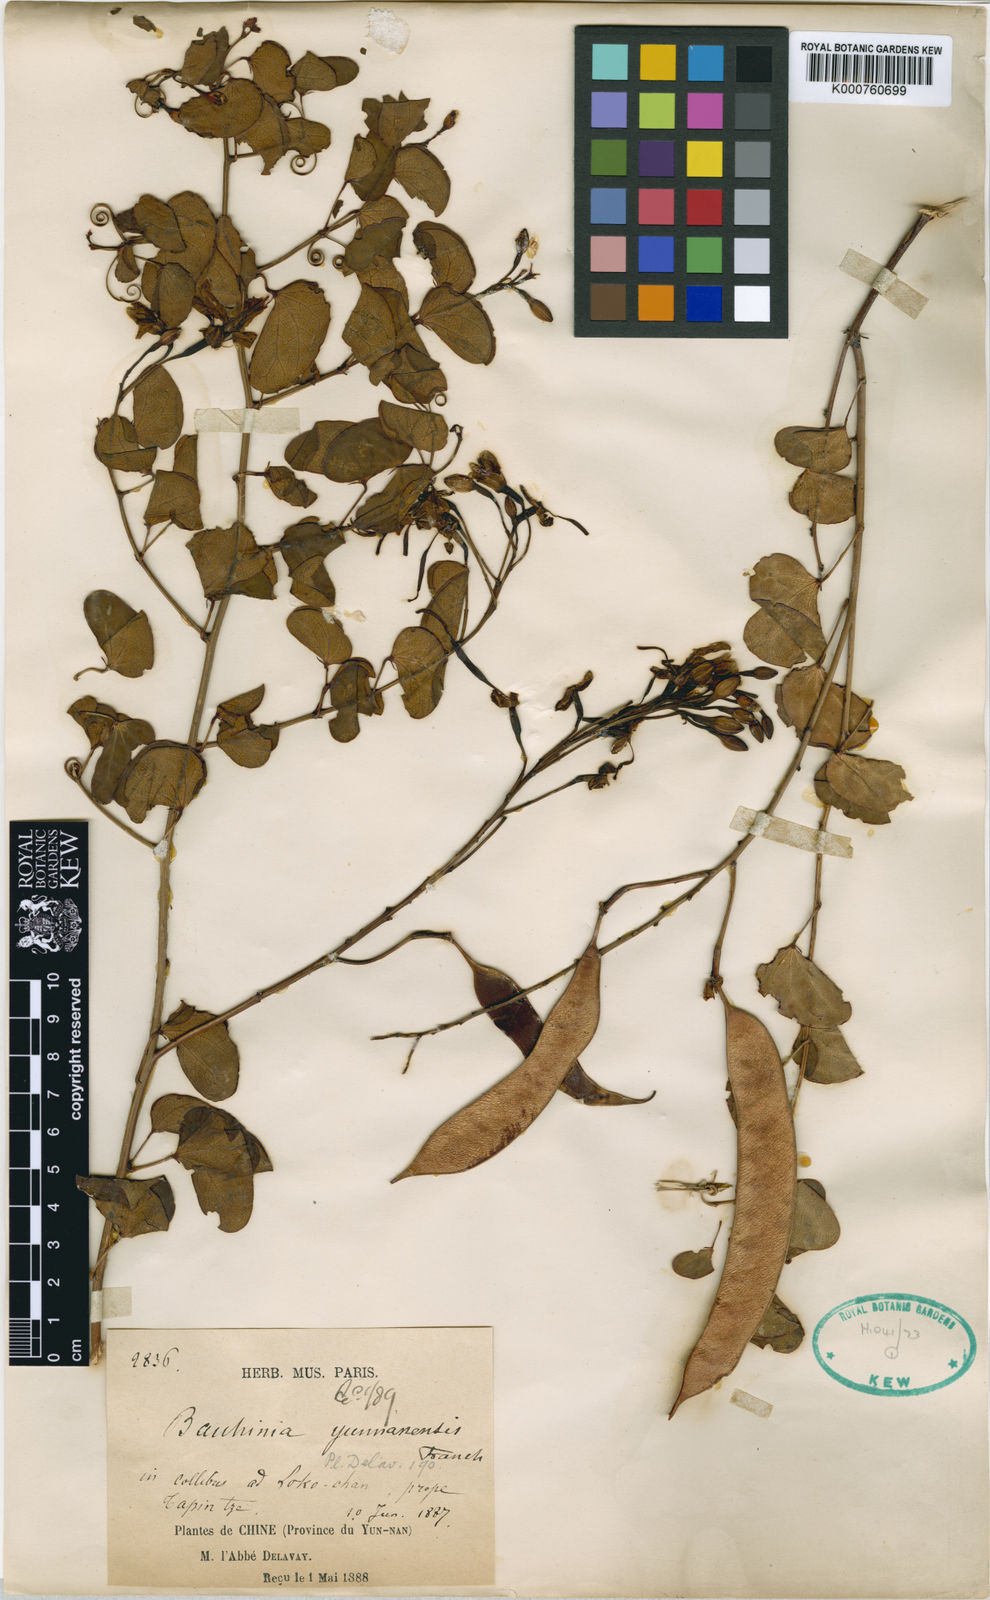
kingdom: Plantae
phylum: Tracheophyta
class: Magnoliopsida
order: Fabales
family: Fabaceae
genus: Phanera
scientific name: Phanera yunnanensis
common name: Phanera
